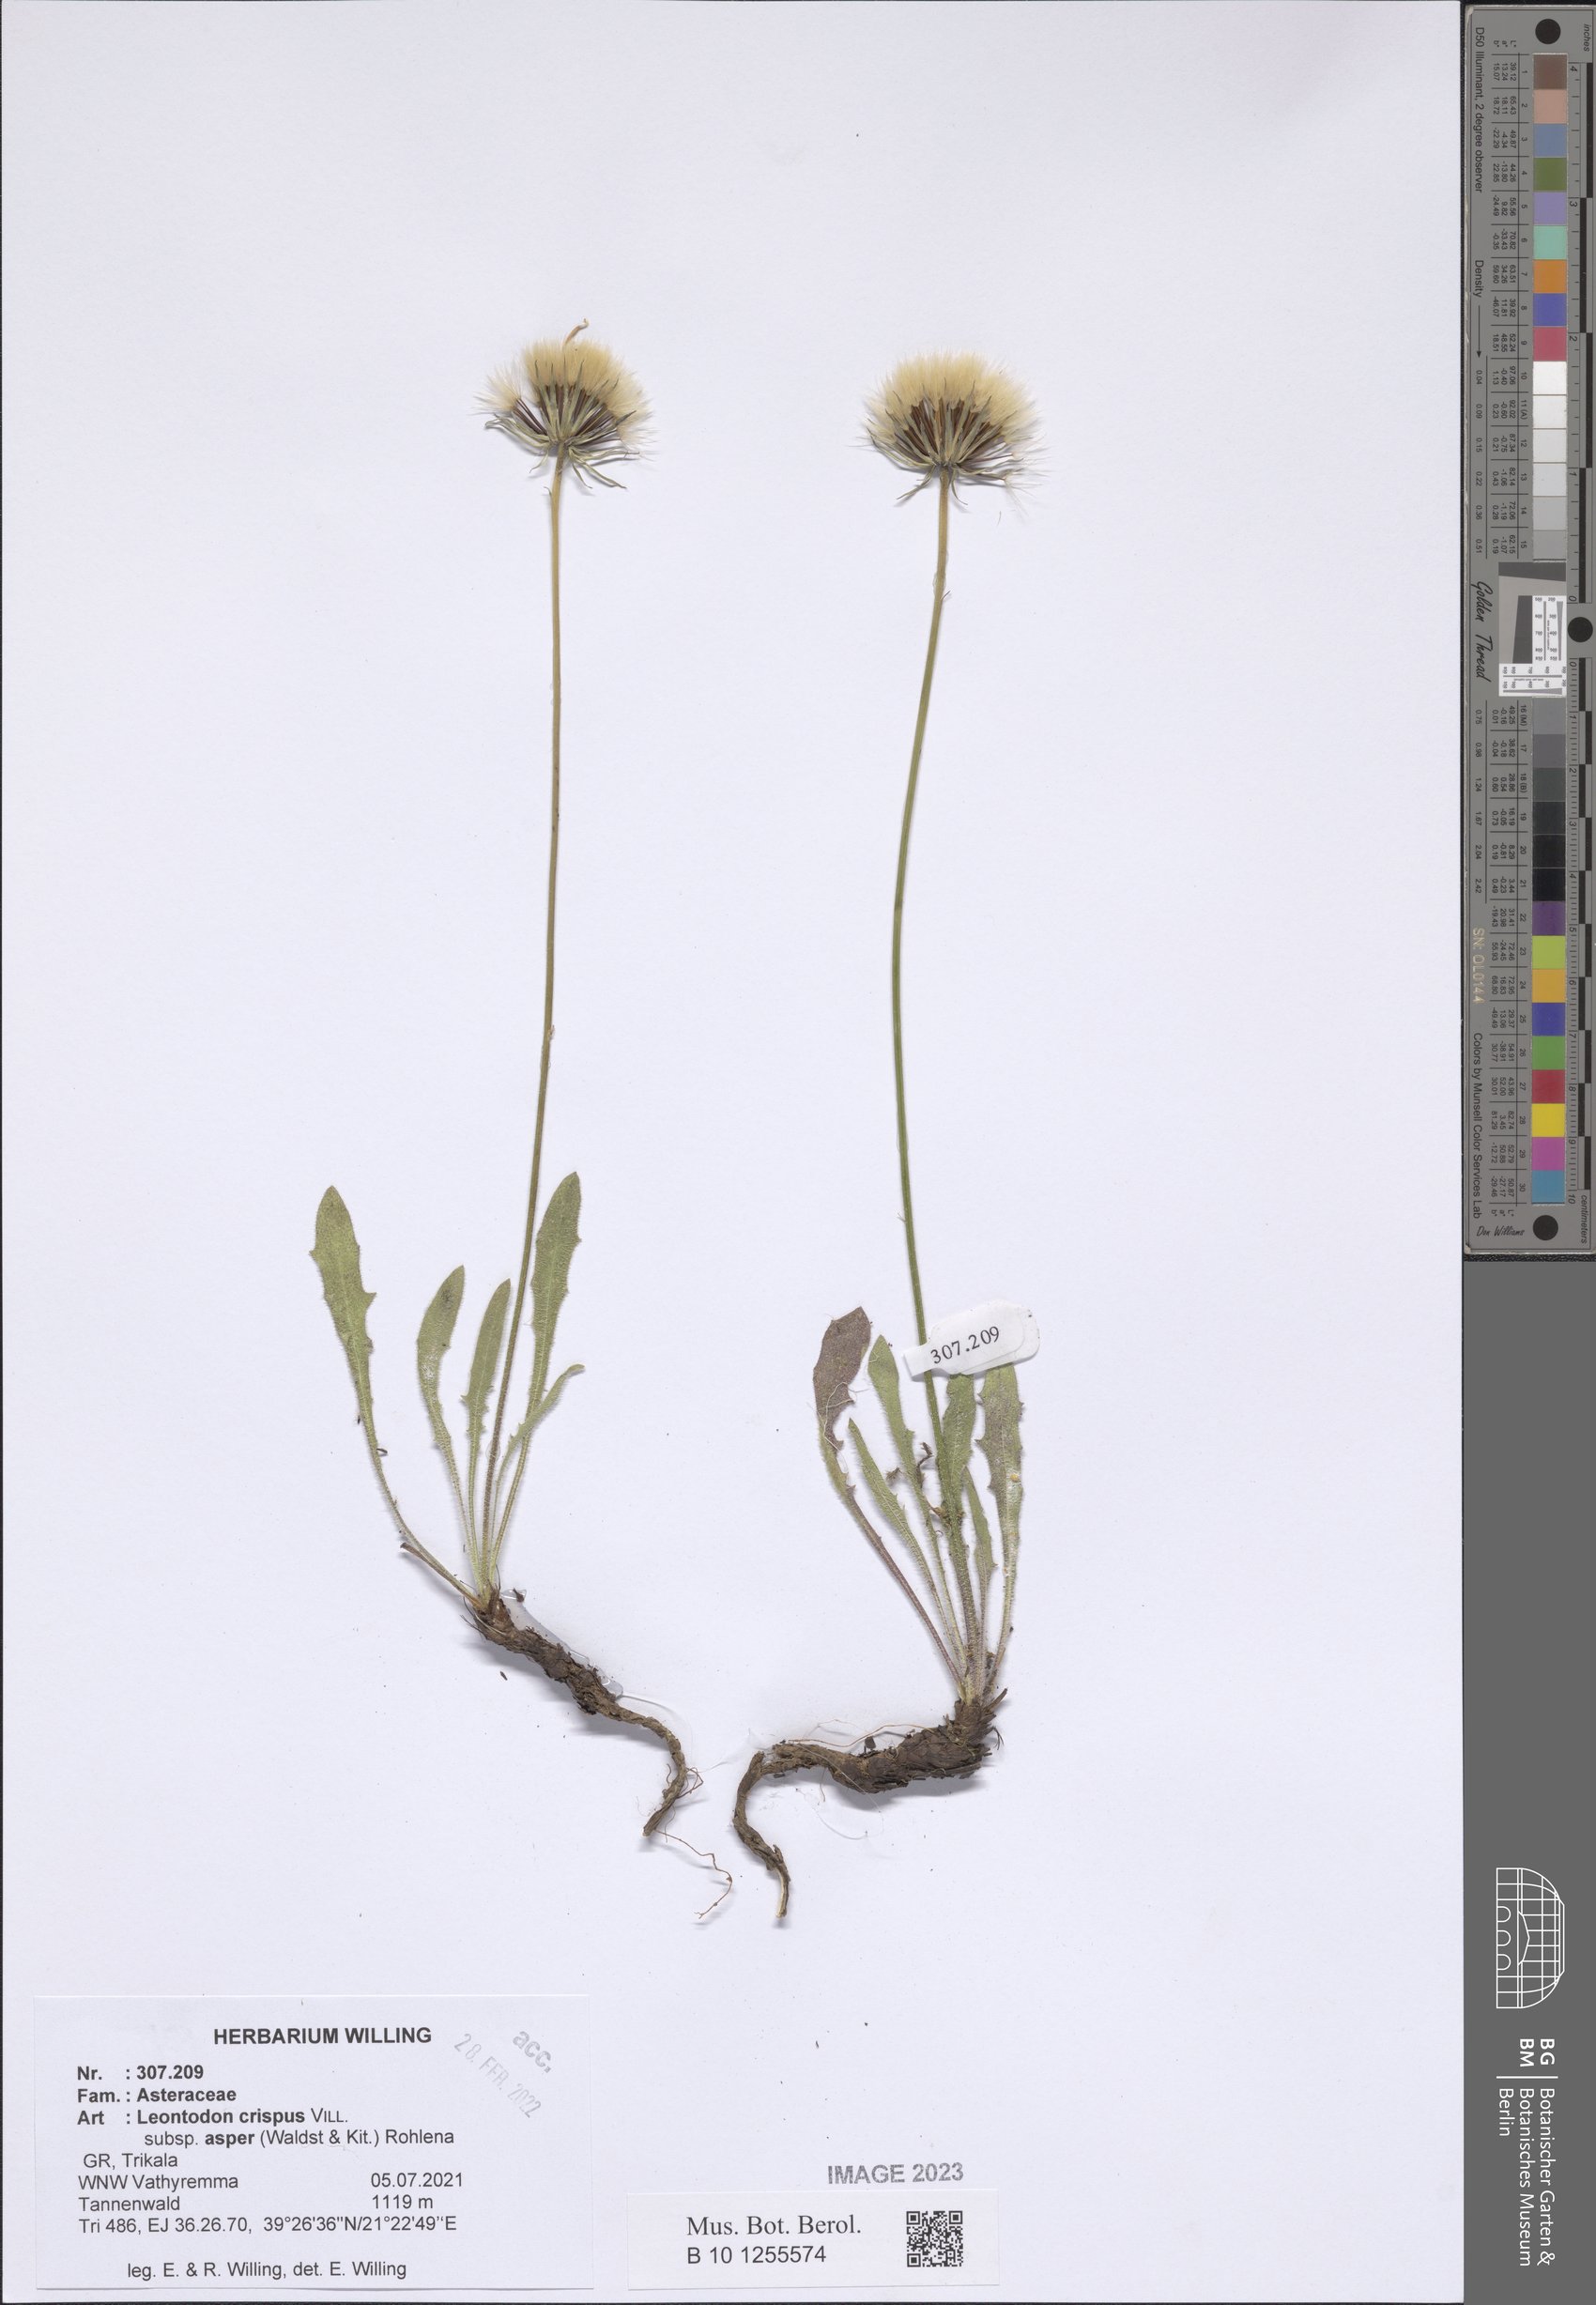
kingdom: Plantae
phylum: Tracheophyta
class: Magnoliopsida
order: Asterales
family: Asteraceae
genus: Leontodon
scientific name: Leontodon biscutellifolius
